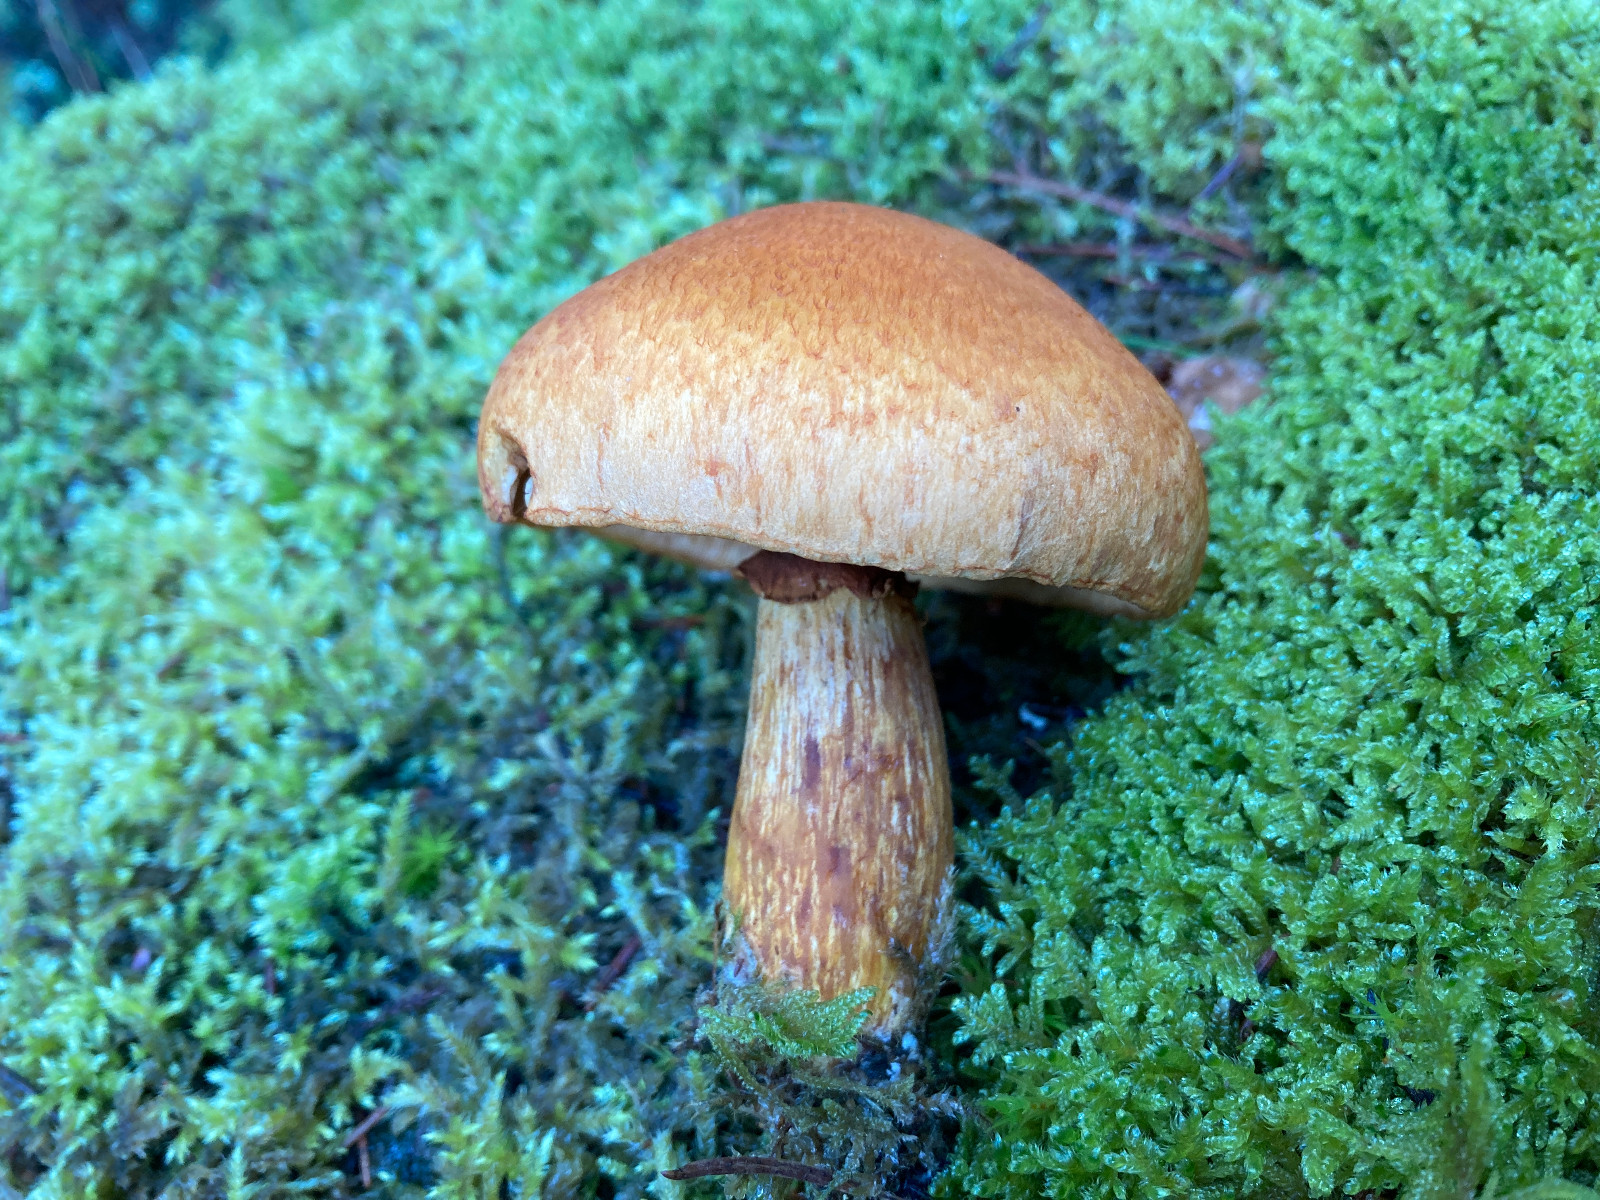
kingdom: Fungi
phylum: Basidiomycota
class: Agaricomycetes
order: Agaricales
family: Hymenogastraceae
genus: Gymnopilus
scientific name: Gymnopilus spectabilis
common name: fibret flammehat
